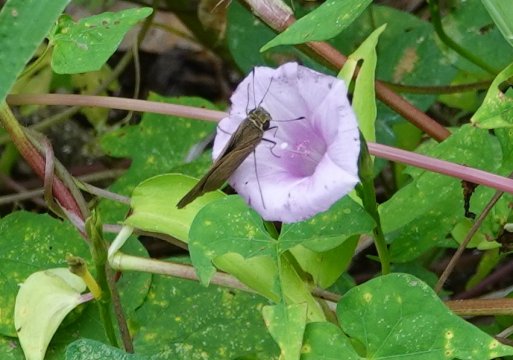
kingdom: Animalia
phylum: Arthropoda
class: Insecta
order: Lepidoptera
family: Hesperiidae
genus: Panoquina
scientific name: Panoquina ocola
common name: Ocola Skipper
